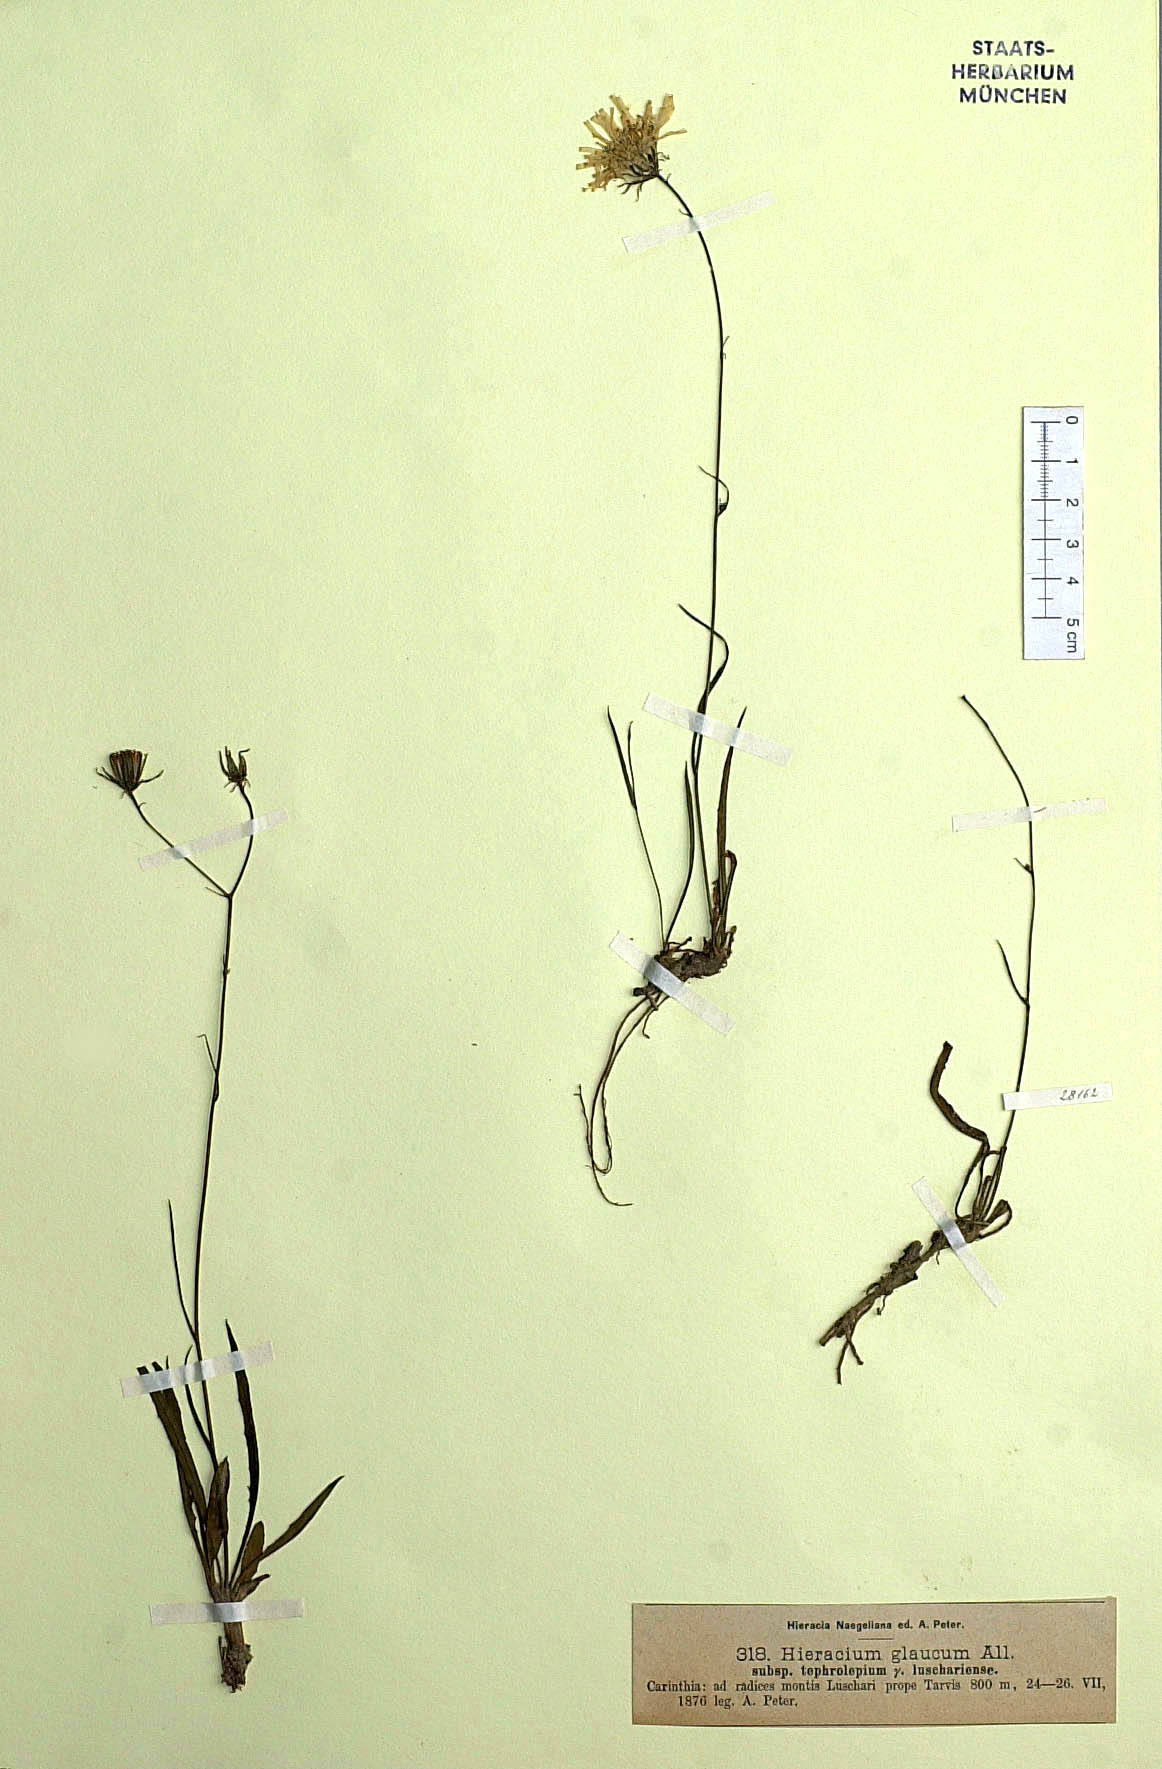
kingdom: Plantae
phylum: Tracheophyta
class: Magnoliopsida
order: Asterales
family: Asteraceae
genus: Hieracium
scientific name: Hieracium glaucum
